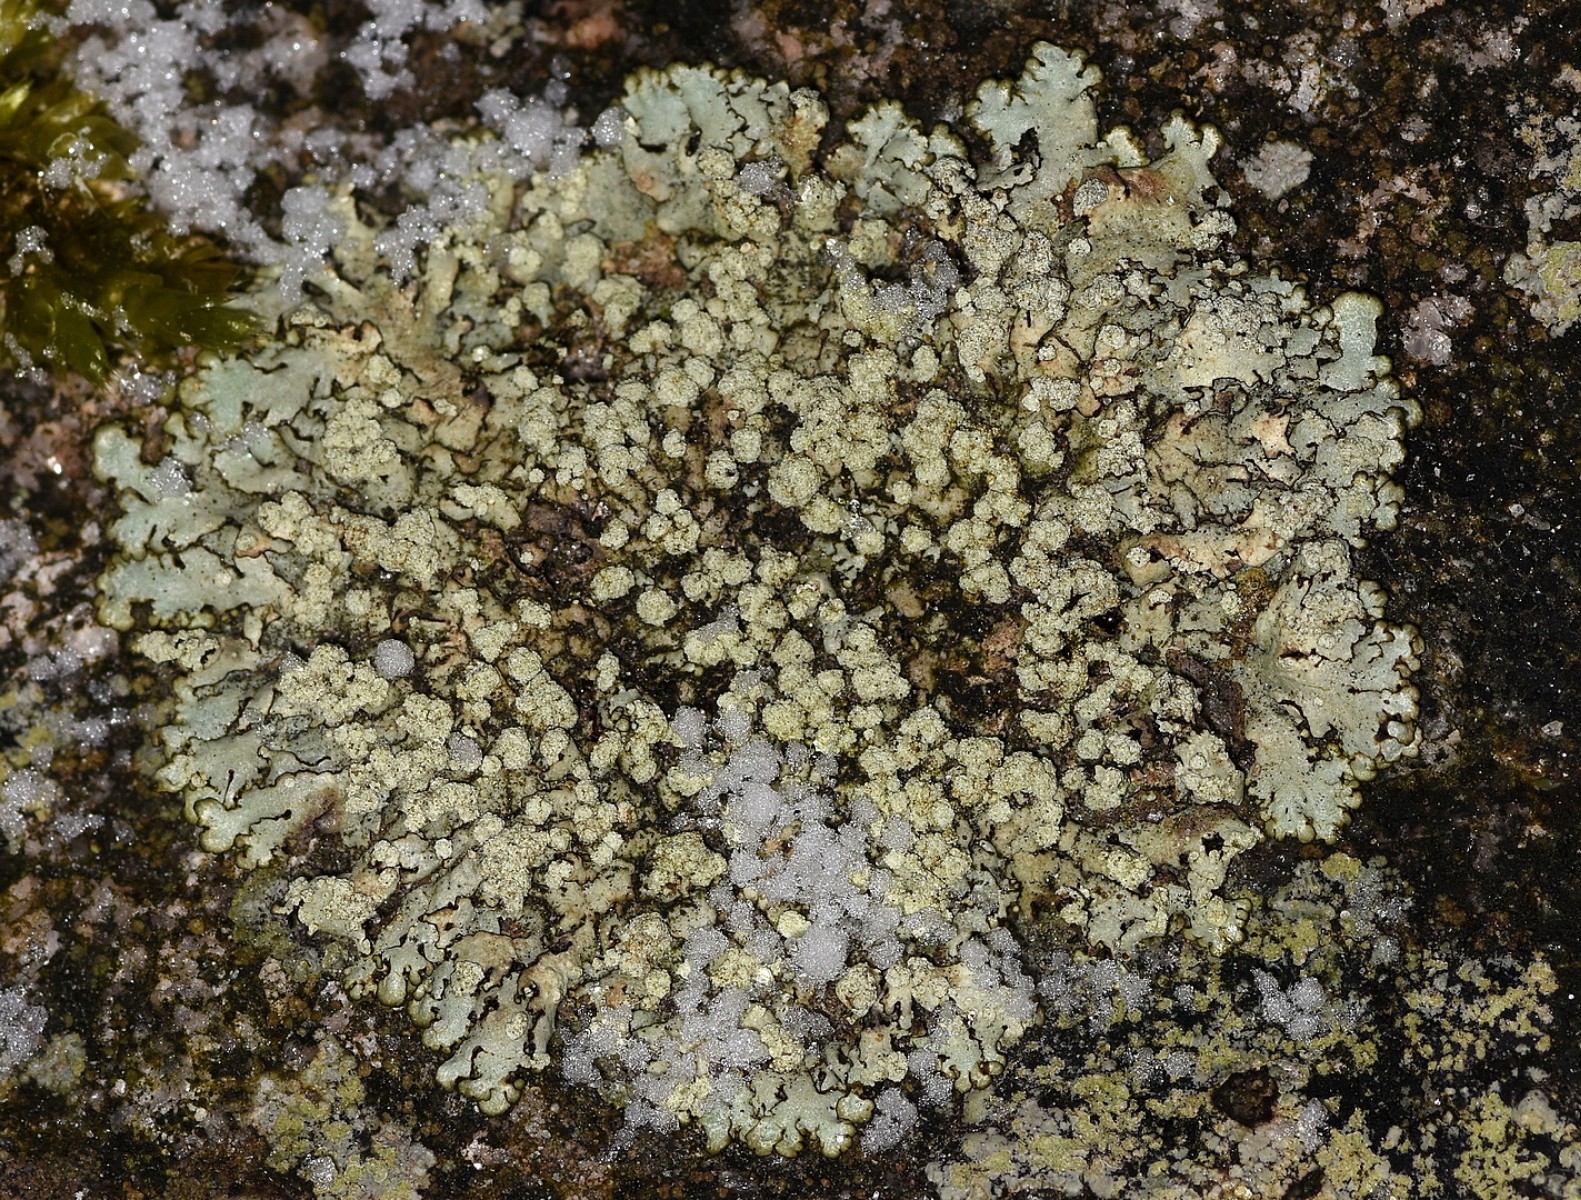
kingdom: Fungi
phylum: Ascomycota
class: Lecanoromycetes
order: Lecanorales
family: Parmeliaceae
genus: Xanthoparmelia
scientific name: Xanthoparmelia mougeotii
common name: liden skållav
